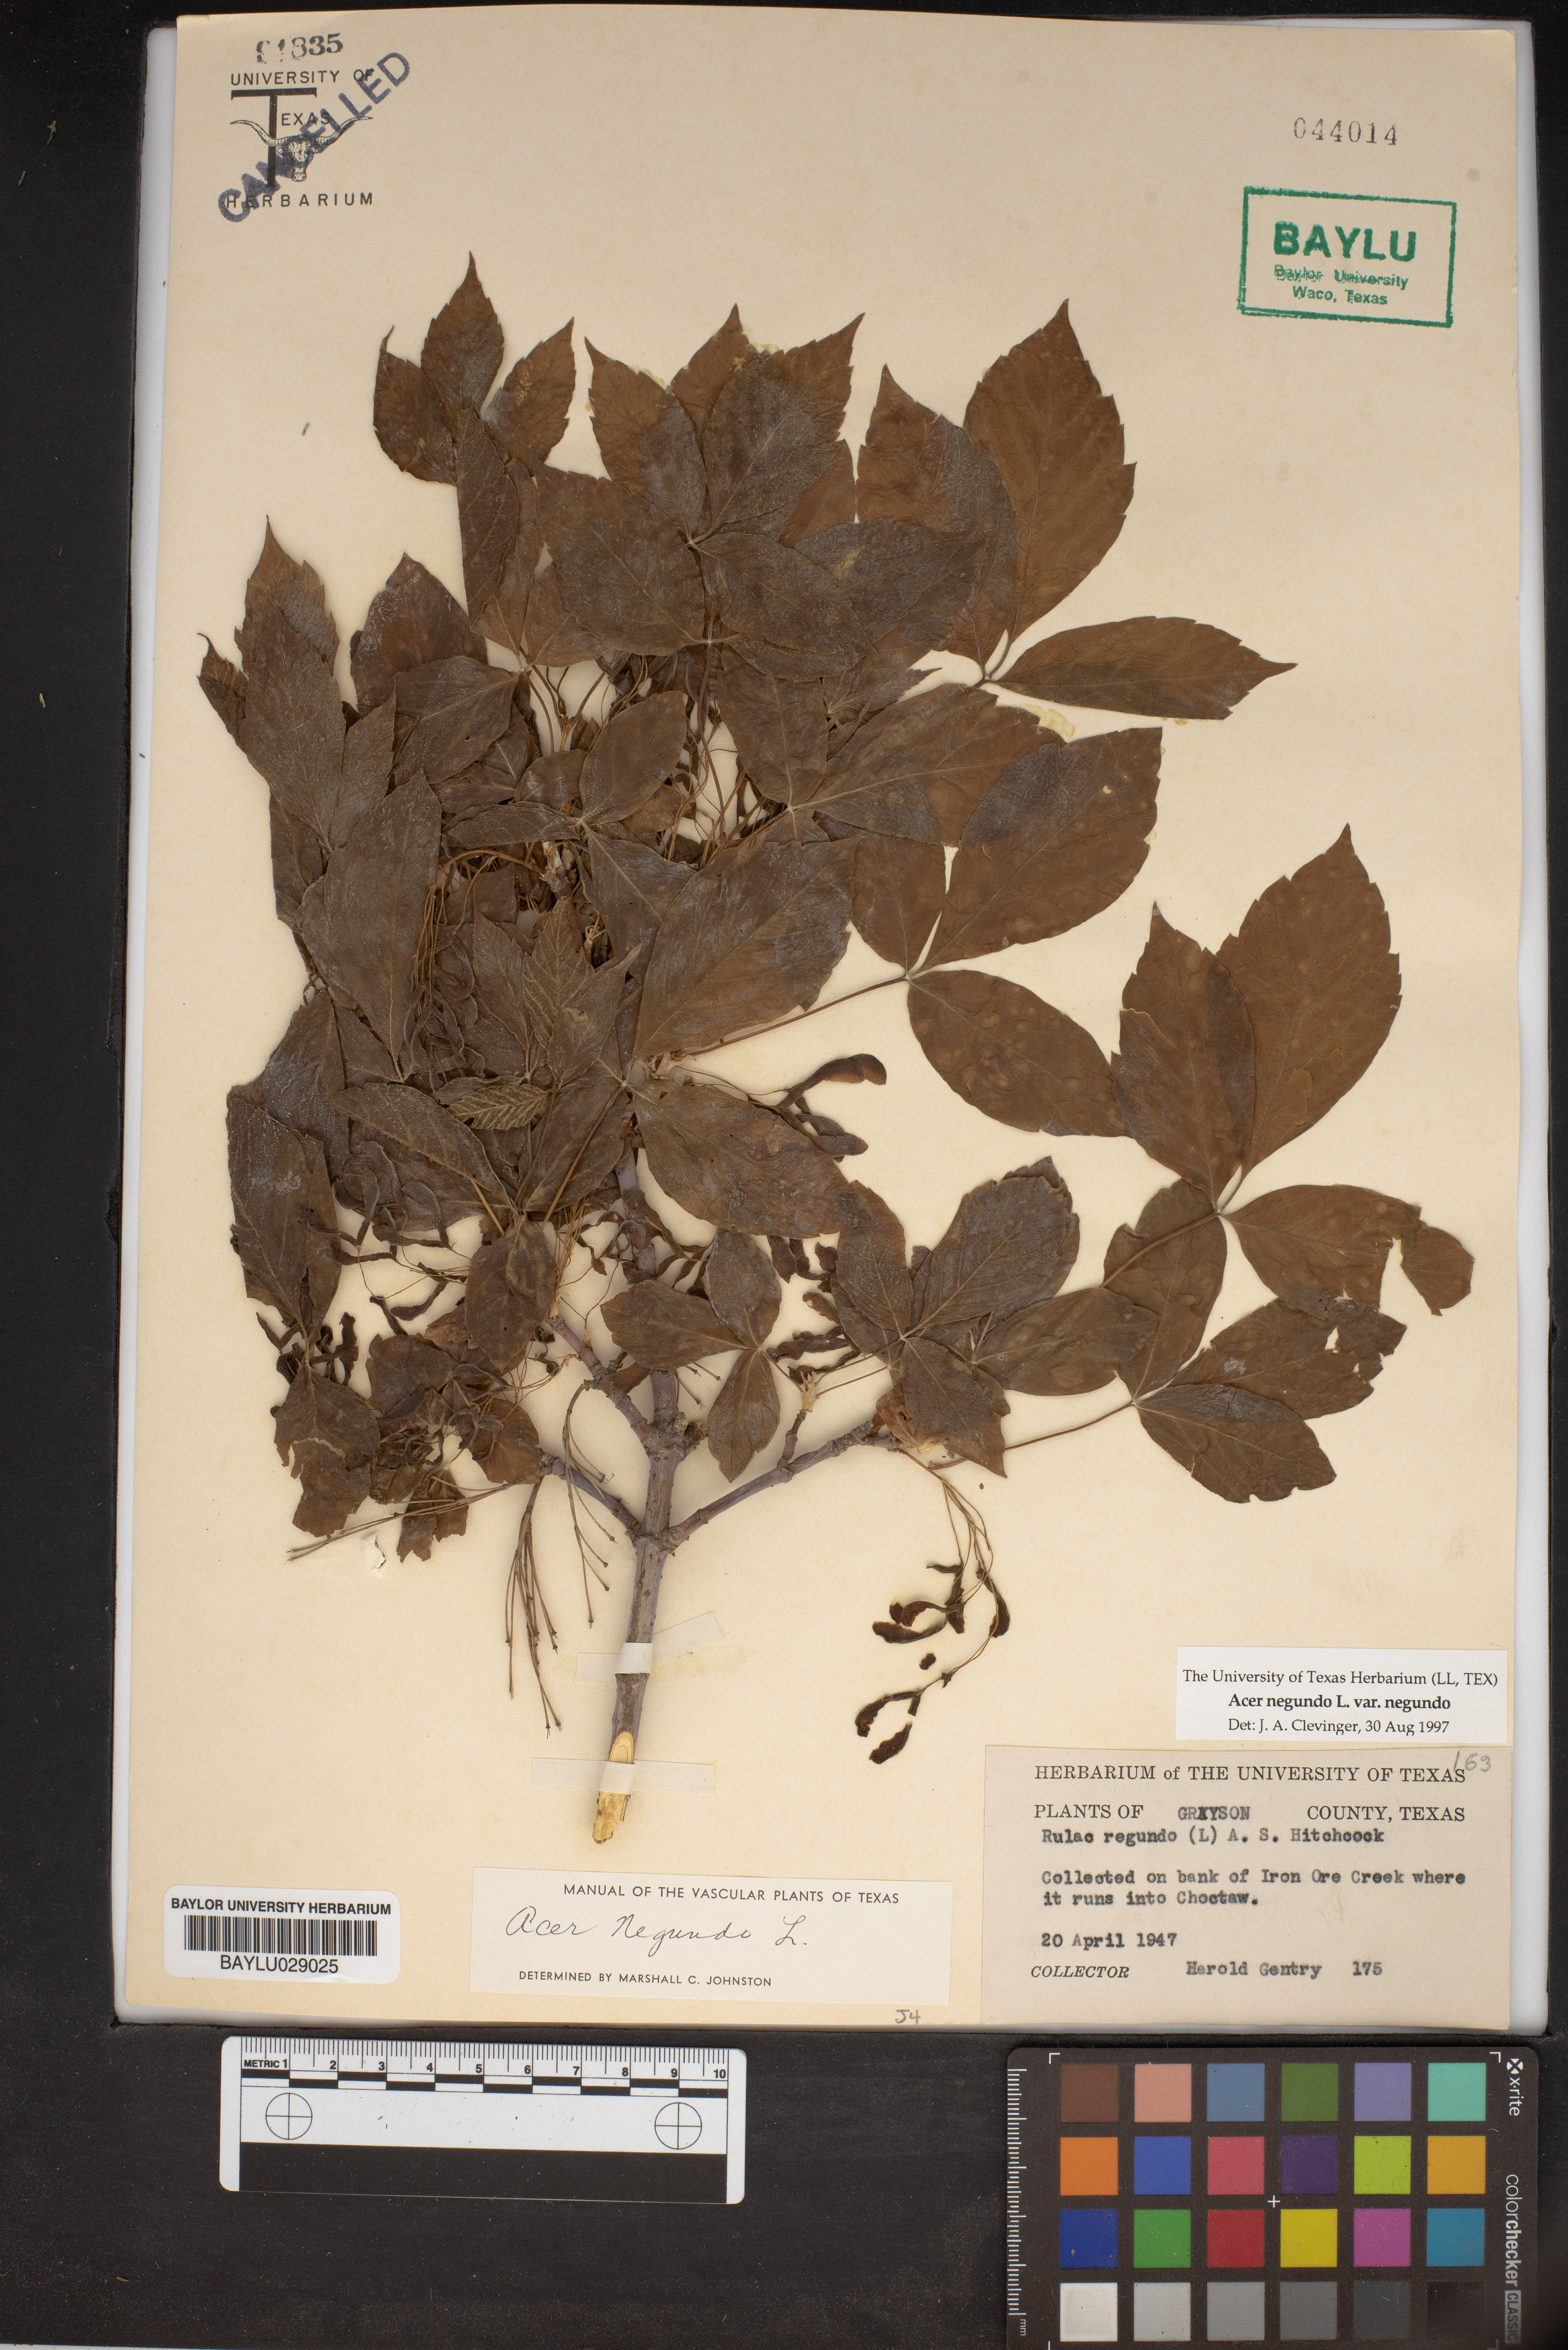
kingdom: Plantae
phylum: Tracheophyta
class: Magnoliopsida
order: Sapindales
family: Sapindaceae
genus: Acer
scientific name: Acer negundo
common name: Ashleaf maple
